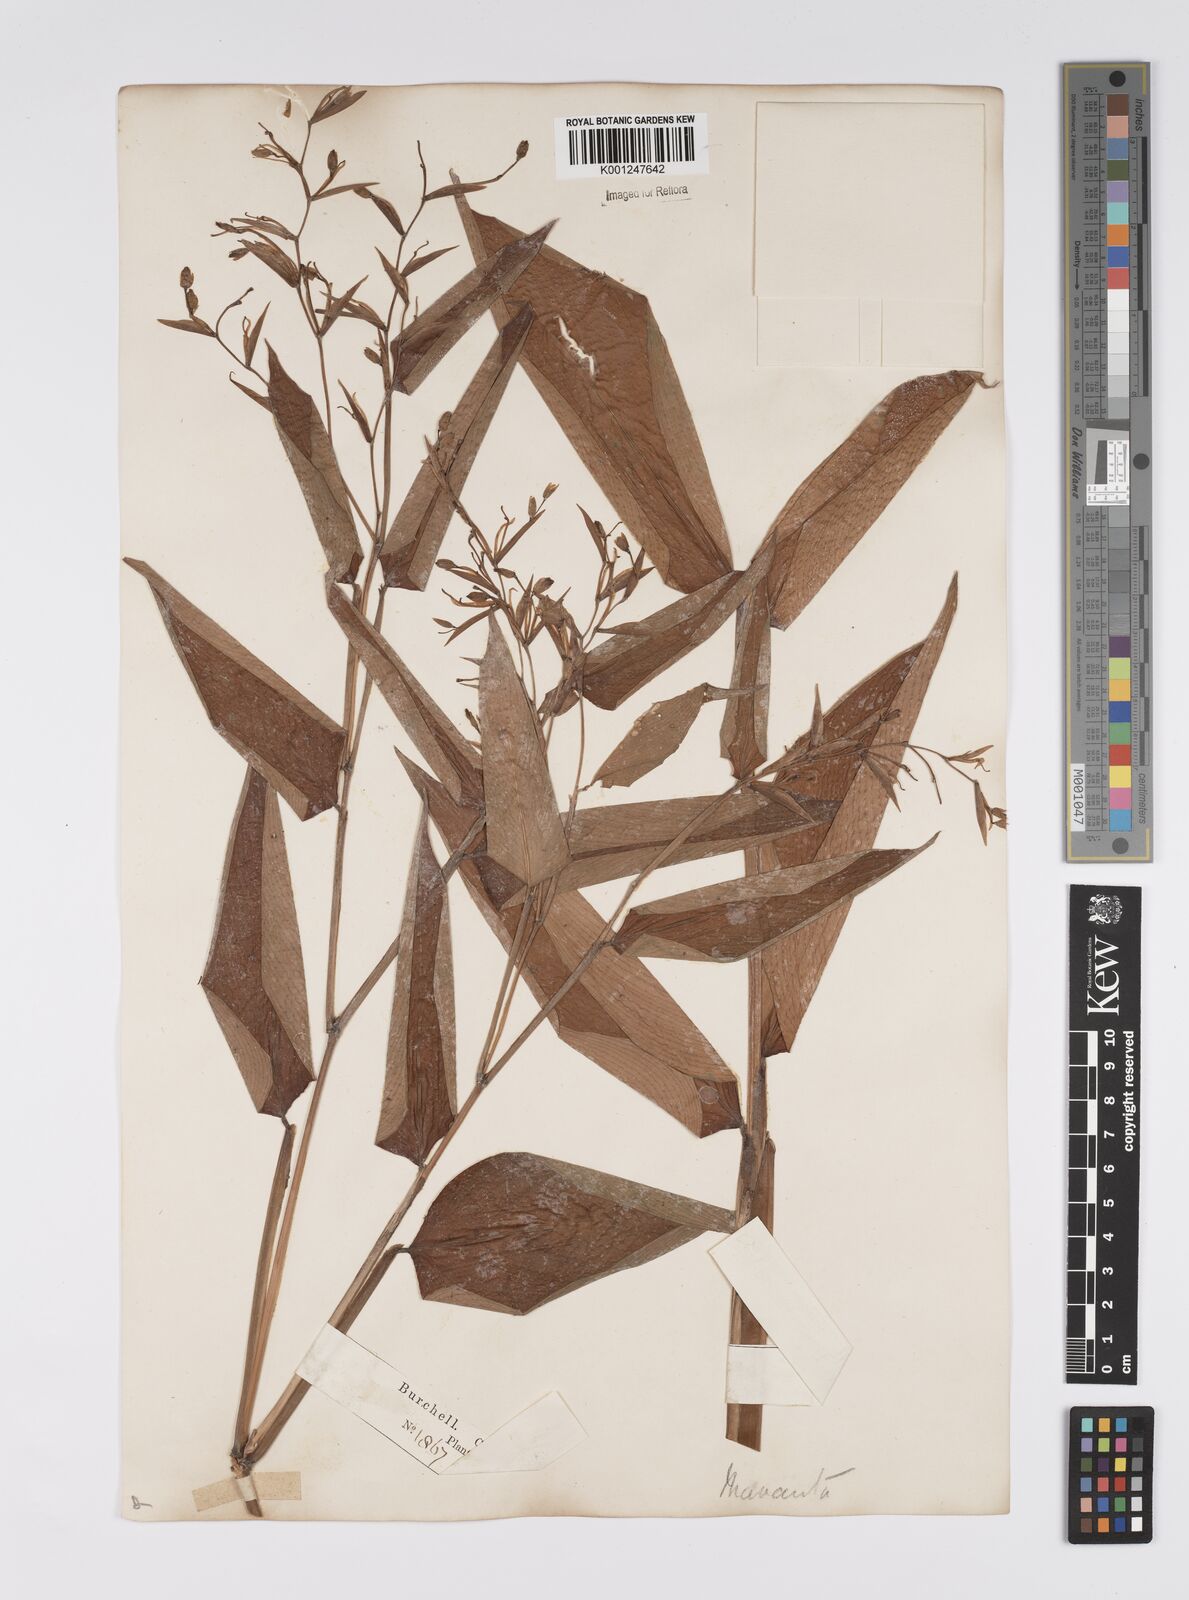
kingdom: Plantae
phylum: Tracheophyta
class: Liliopsida
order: Zingiberales
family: Marantaceae
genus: Stromanthe
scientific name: Stromanthe tonckat
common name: Stromanthe
